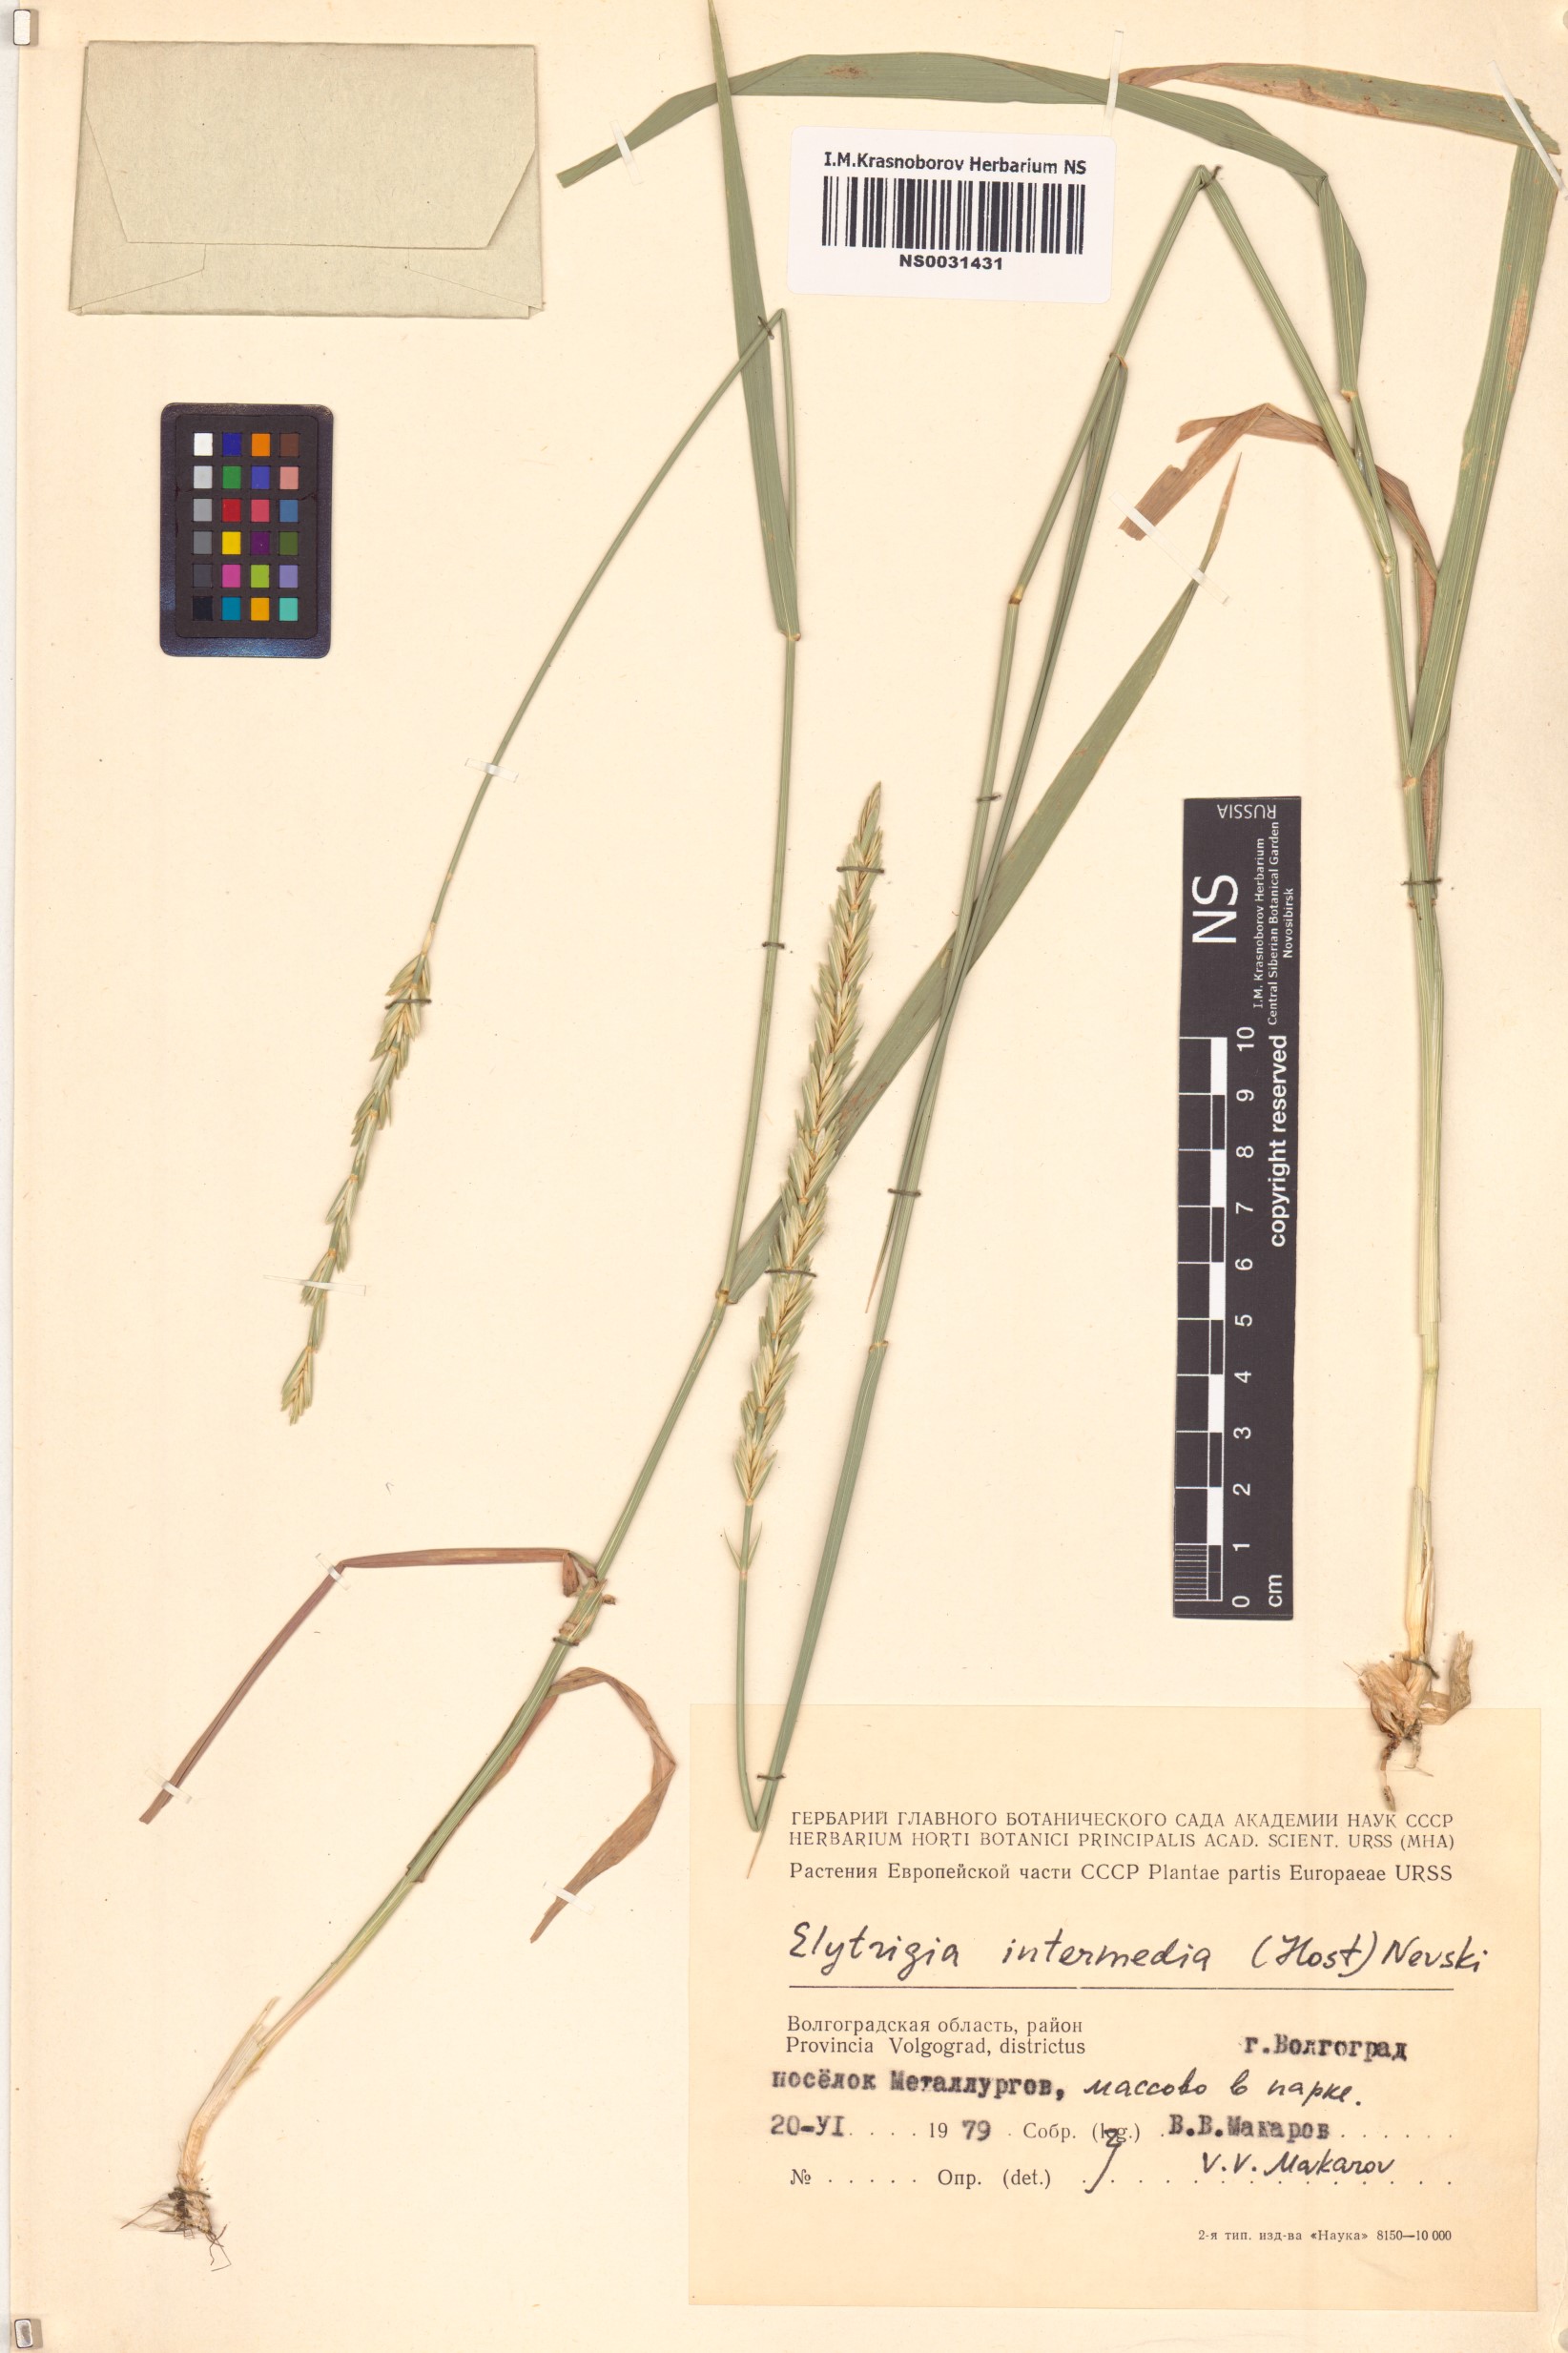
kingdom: Plantae
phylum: Tracheophyta
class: Liliopsida
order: Poales
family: Poaceae
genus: Thinopyrum
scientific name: Thinopyrum intermedium
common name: Intermediate wheatgrass
